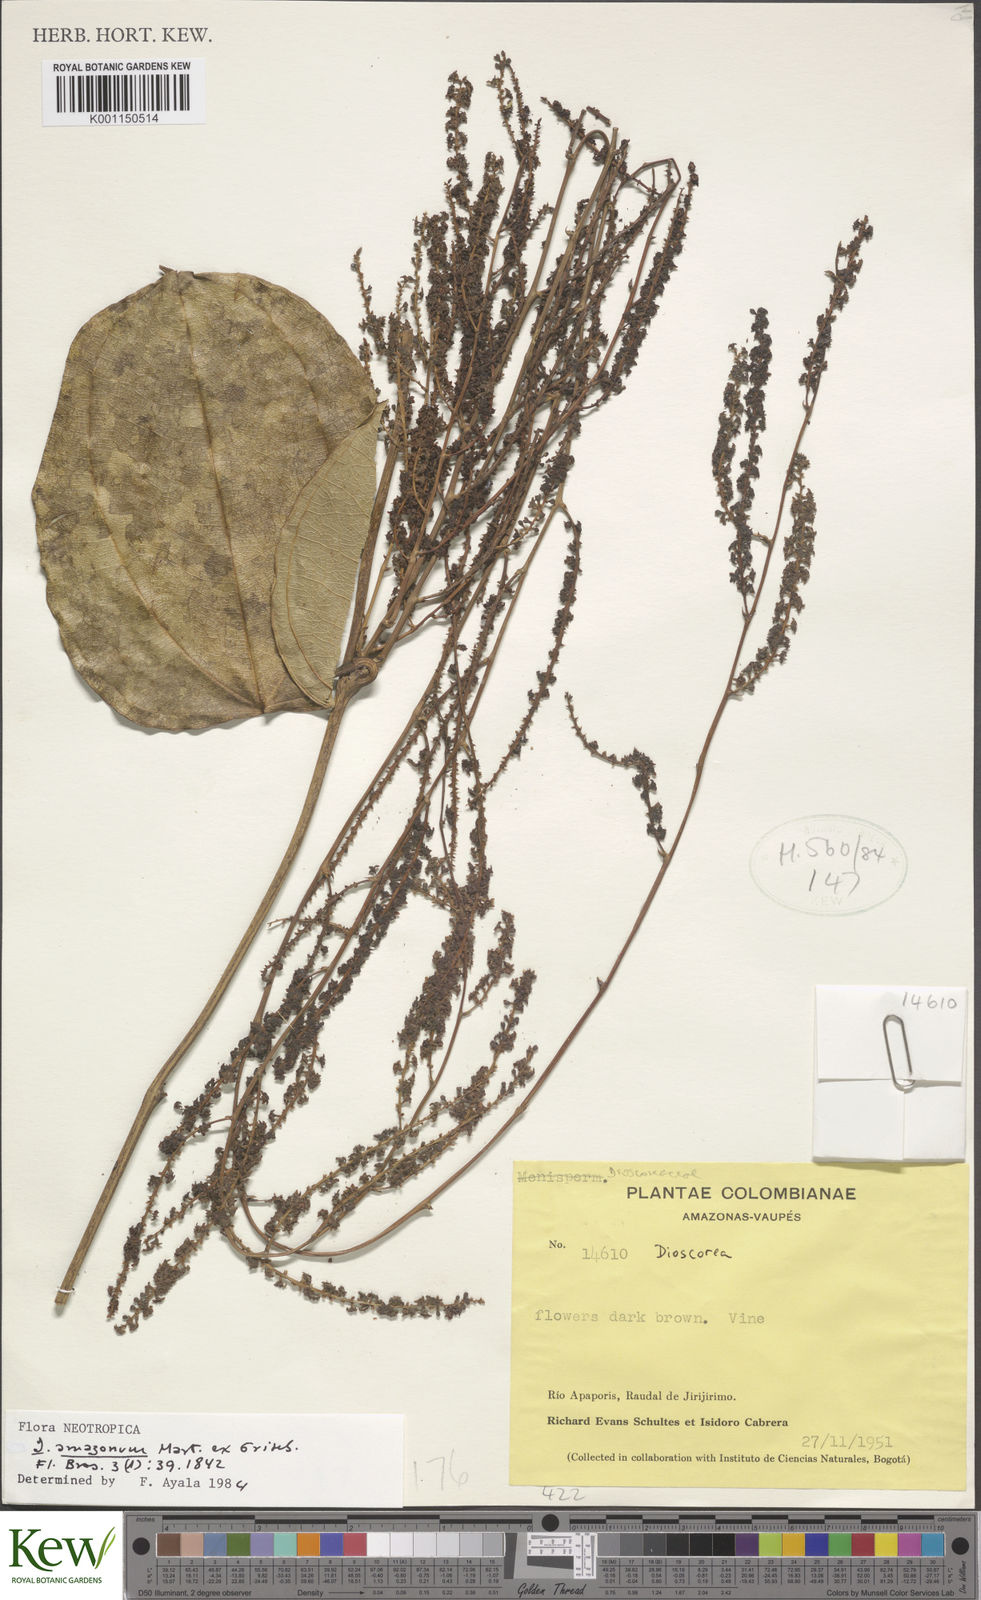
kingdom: Plantae
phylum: Tracheophyta
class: Liliopsida
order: Dioscoreales
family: Dioscoreaceae
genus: Dioscorea
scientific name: Dioscorea amazonum
